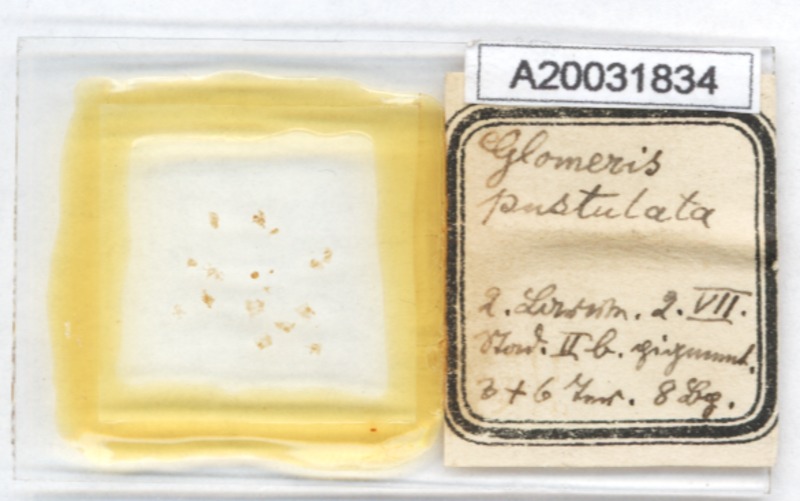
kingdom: Animalia
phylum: Arthropoda
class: Diplopoda
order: Glomerida
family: Glomeridae
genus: Glomeris
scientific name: Glomeris pustulata
